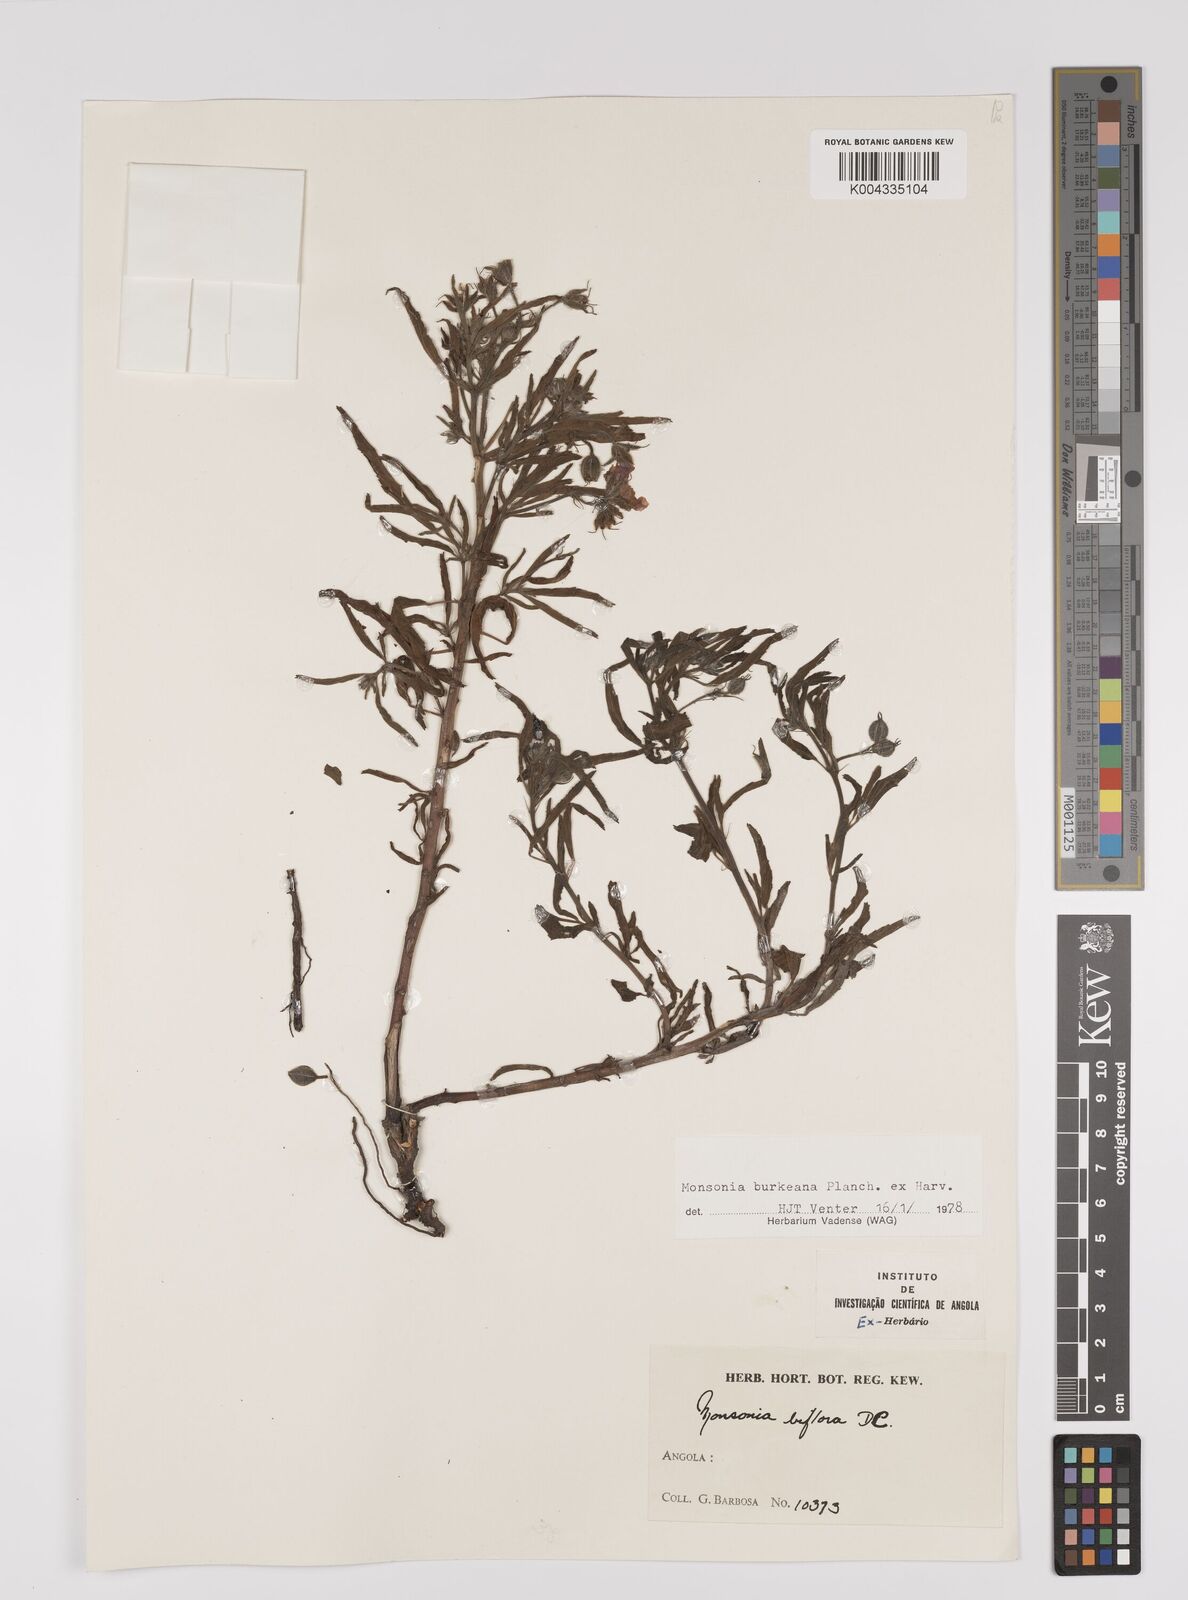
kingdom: Plantae
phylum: Tracheophyta
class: Magnoliopsida
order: Geraniales
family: Geraniaceae
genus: Monsonia
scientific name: Monsonia biflora
